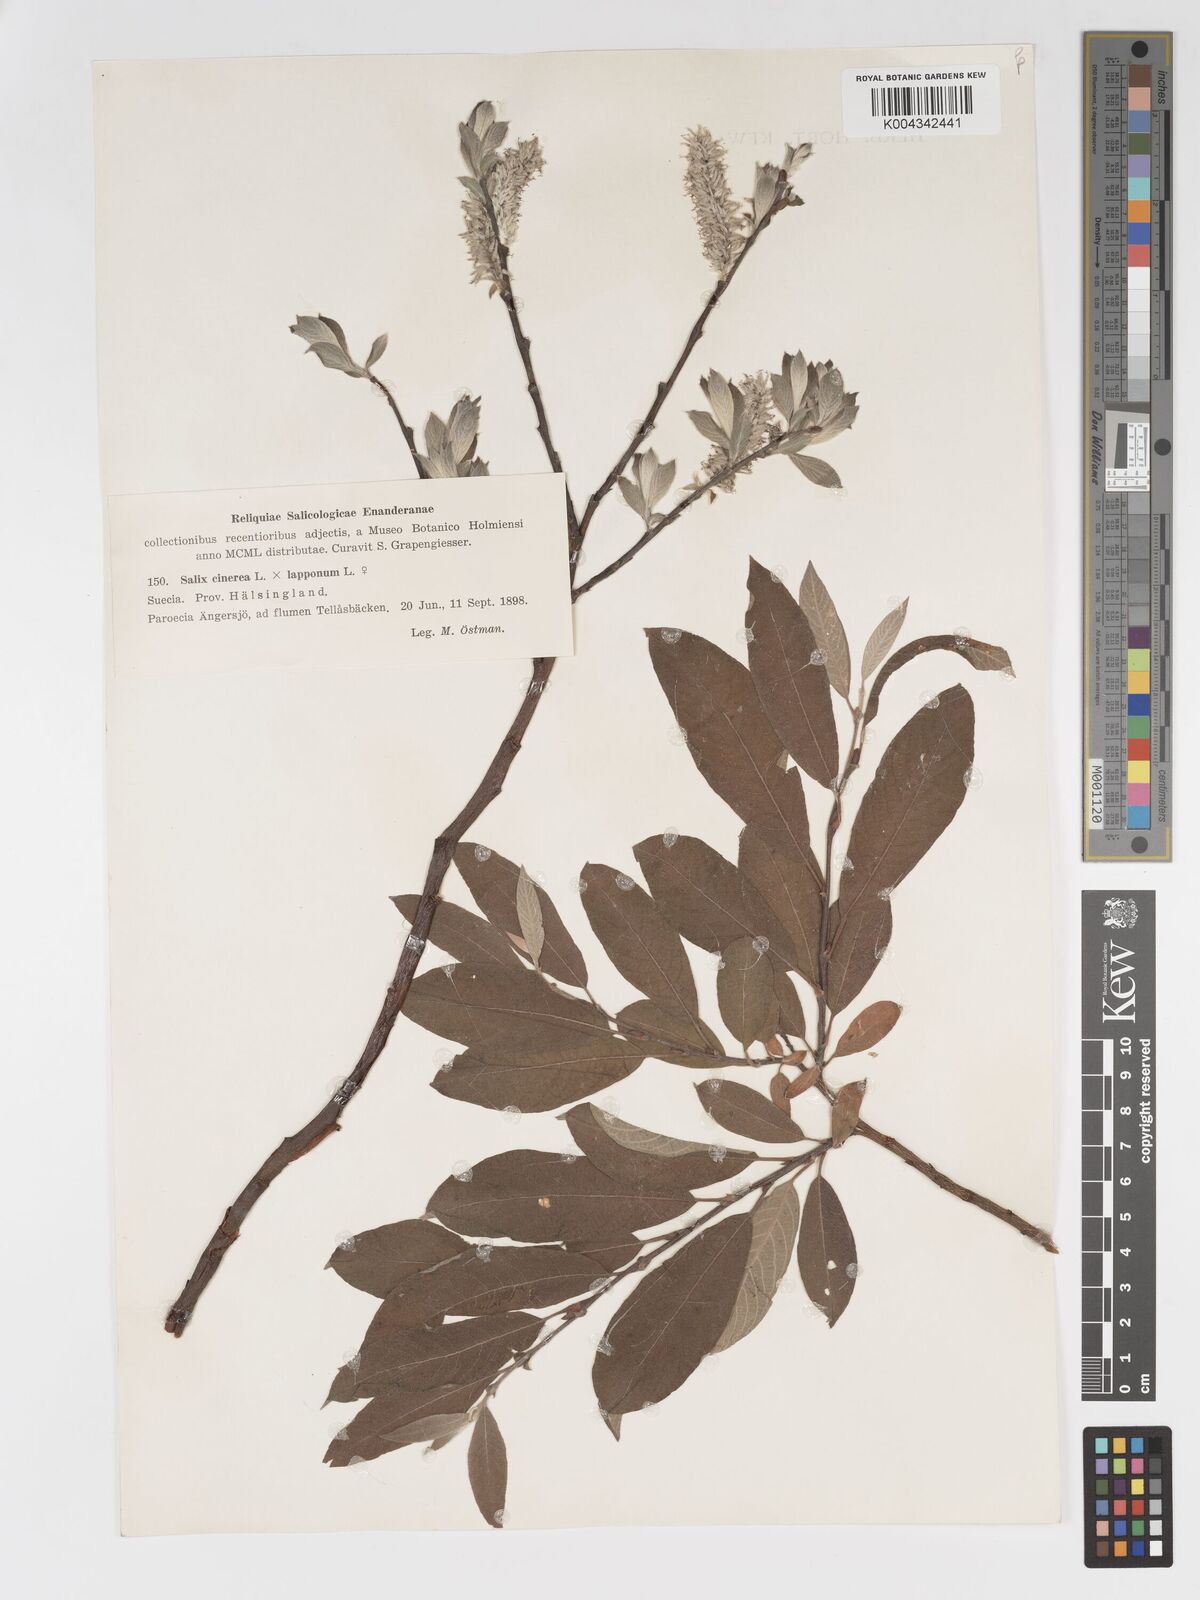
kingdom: Plantae
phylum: Tracheophyta
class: Magnoliopsida
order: Malpighiales
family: Salicaceae
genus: Salix
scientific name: Salix
